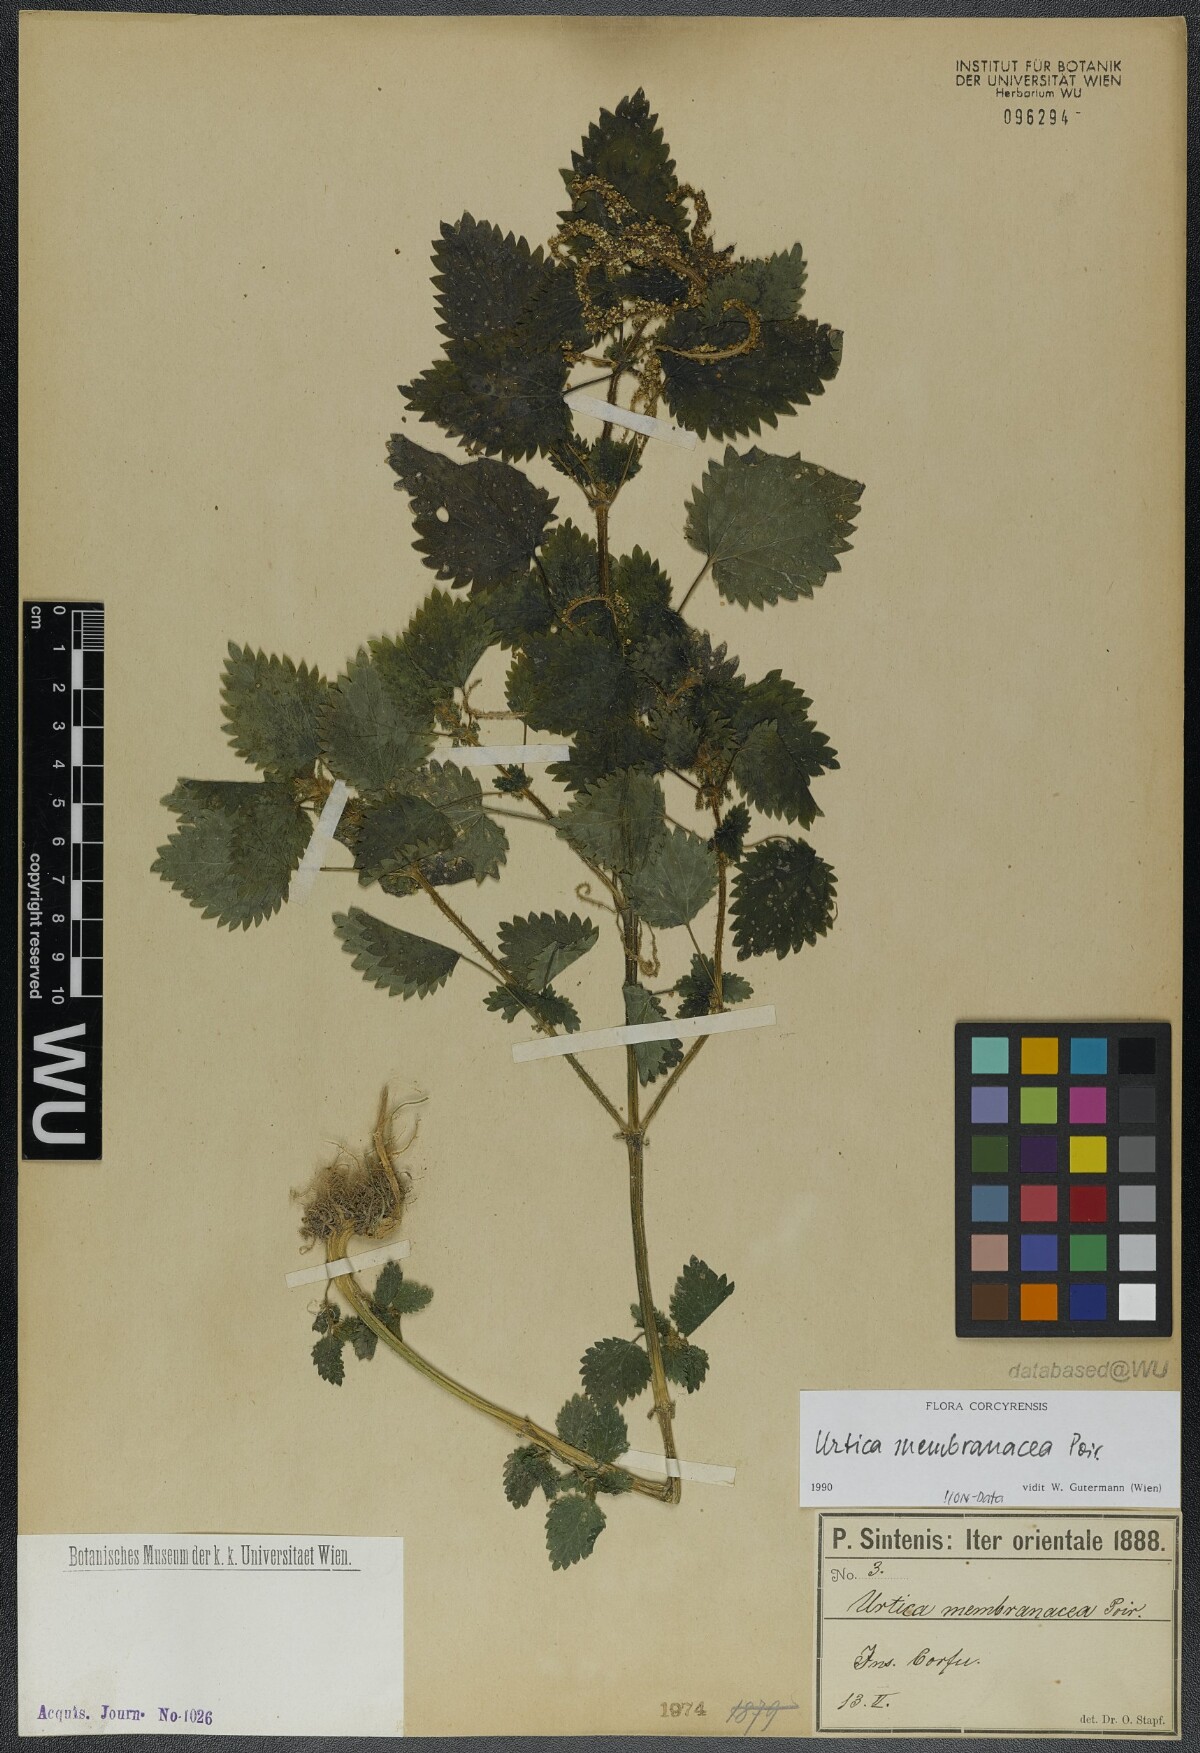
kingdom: Plantae
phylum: Tracheophyta
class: Magnoliopsida
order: Rosales
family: Urticaceae
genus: Urtica
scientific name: Urtica membranacea
